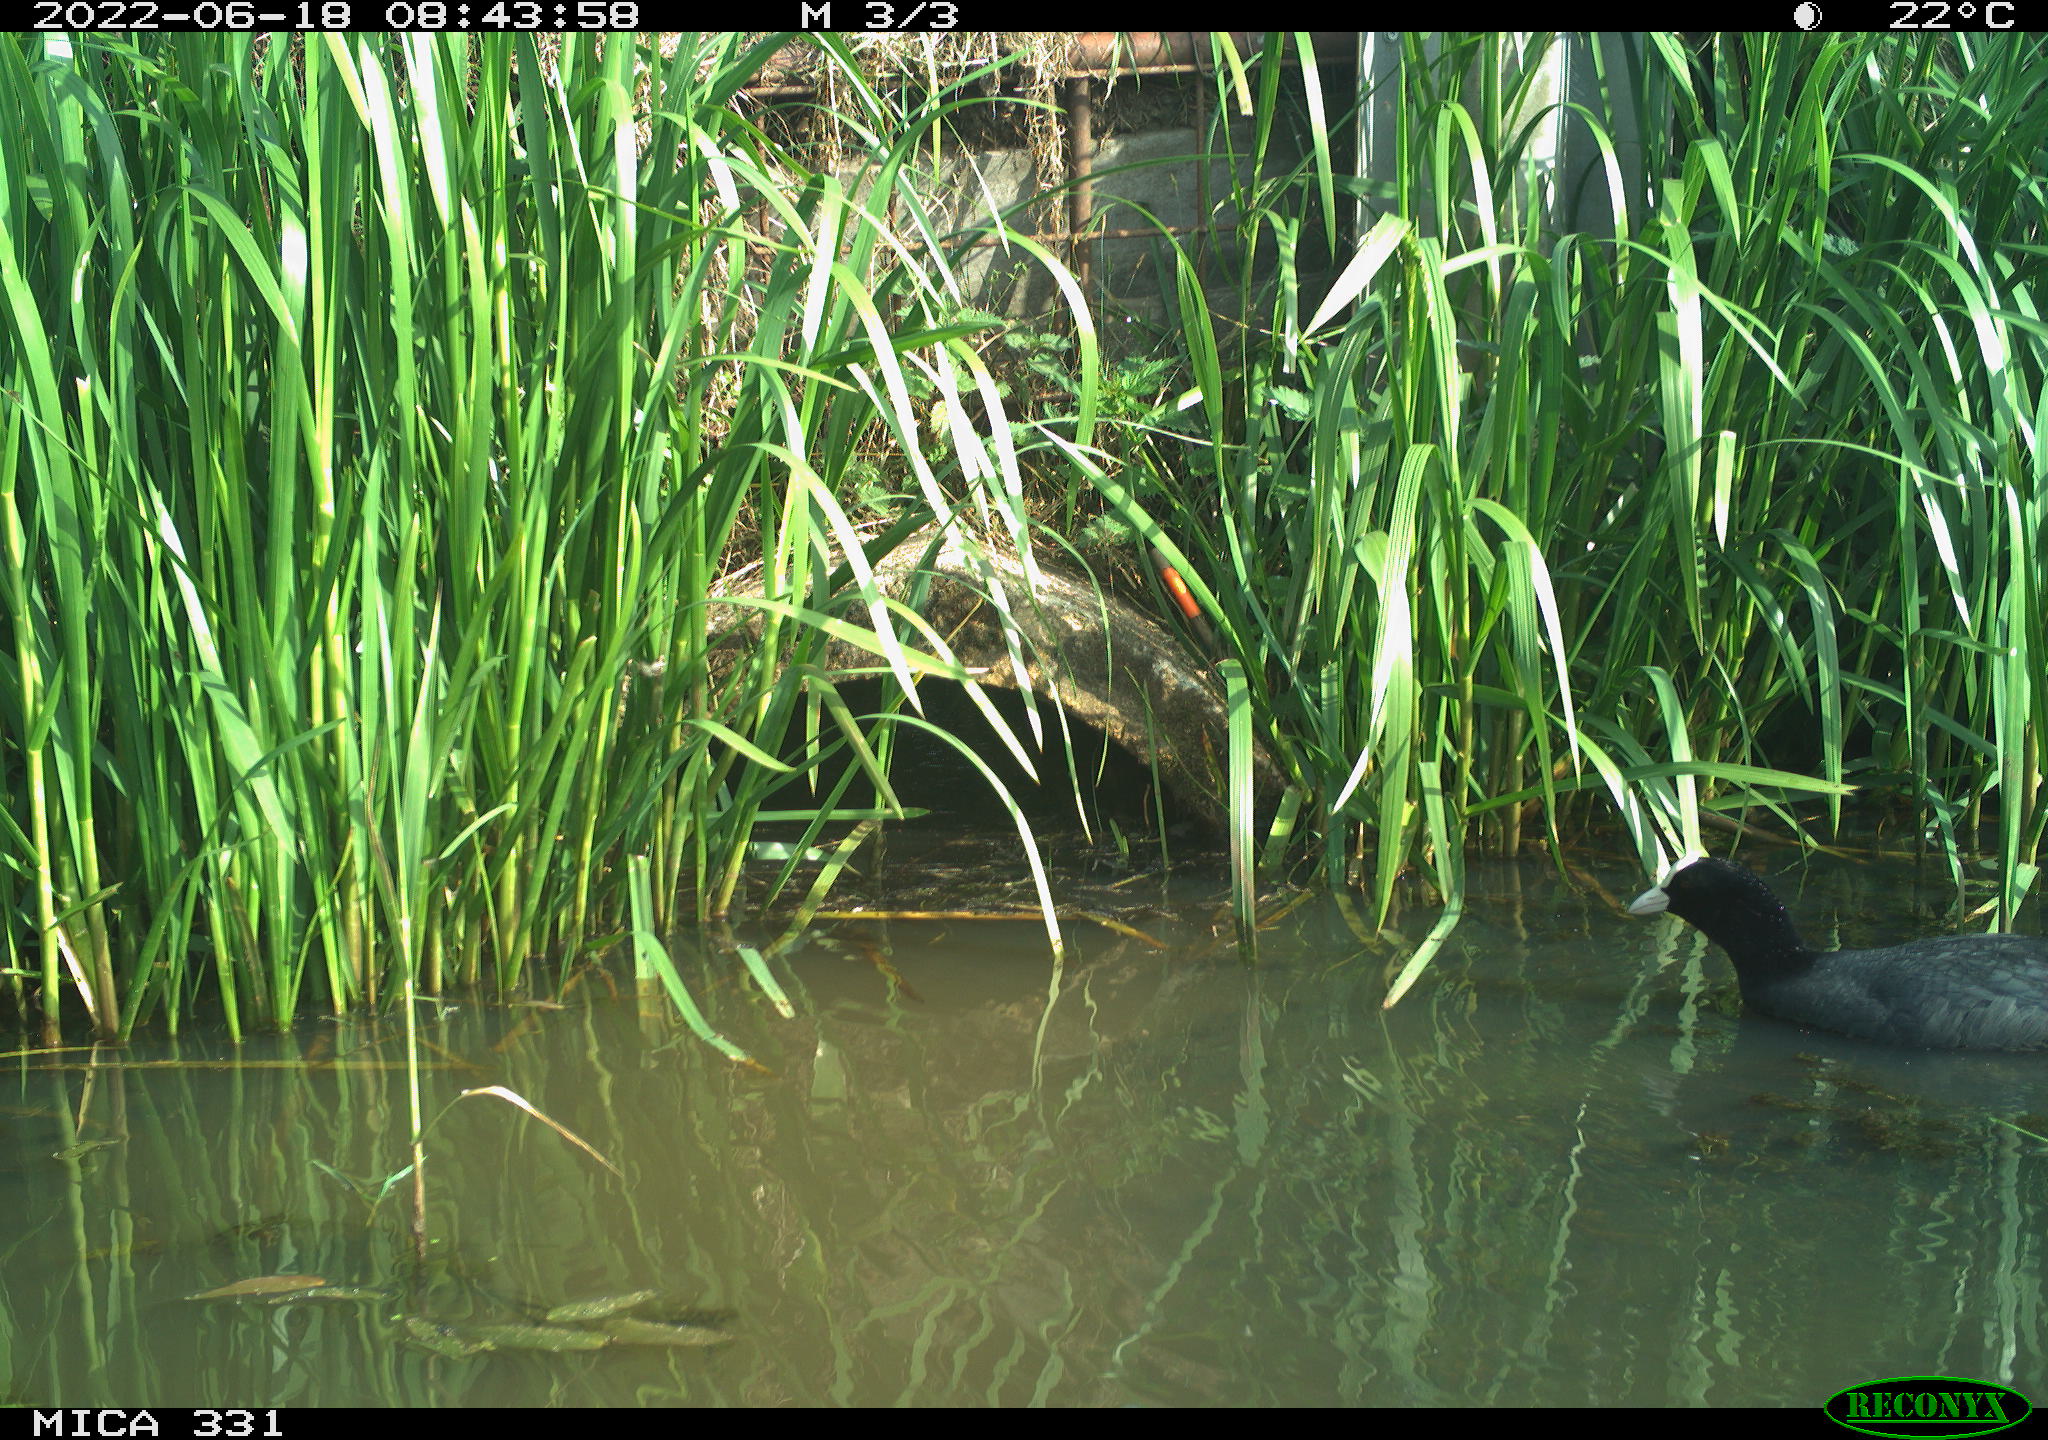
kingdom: Animalia
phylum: Chordata
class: Aves
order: Gruiformes
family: Rallidae
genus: Fulica
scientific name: Fulica atra
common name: Eurasian coot
